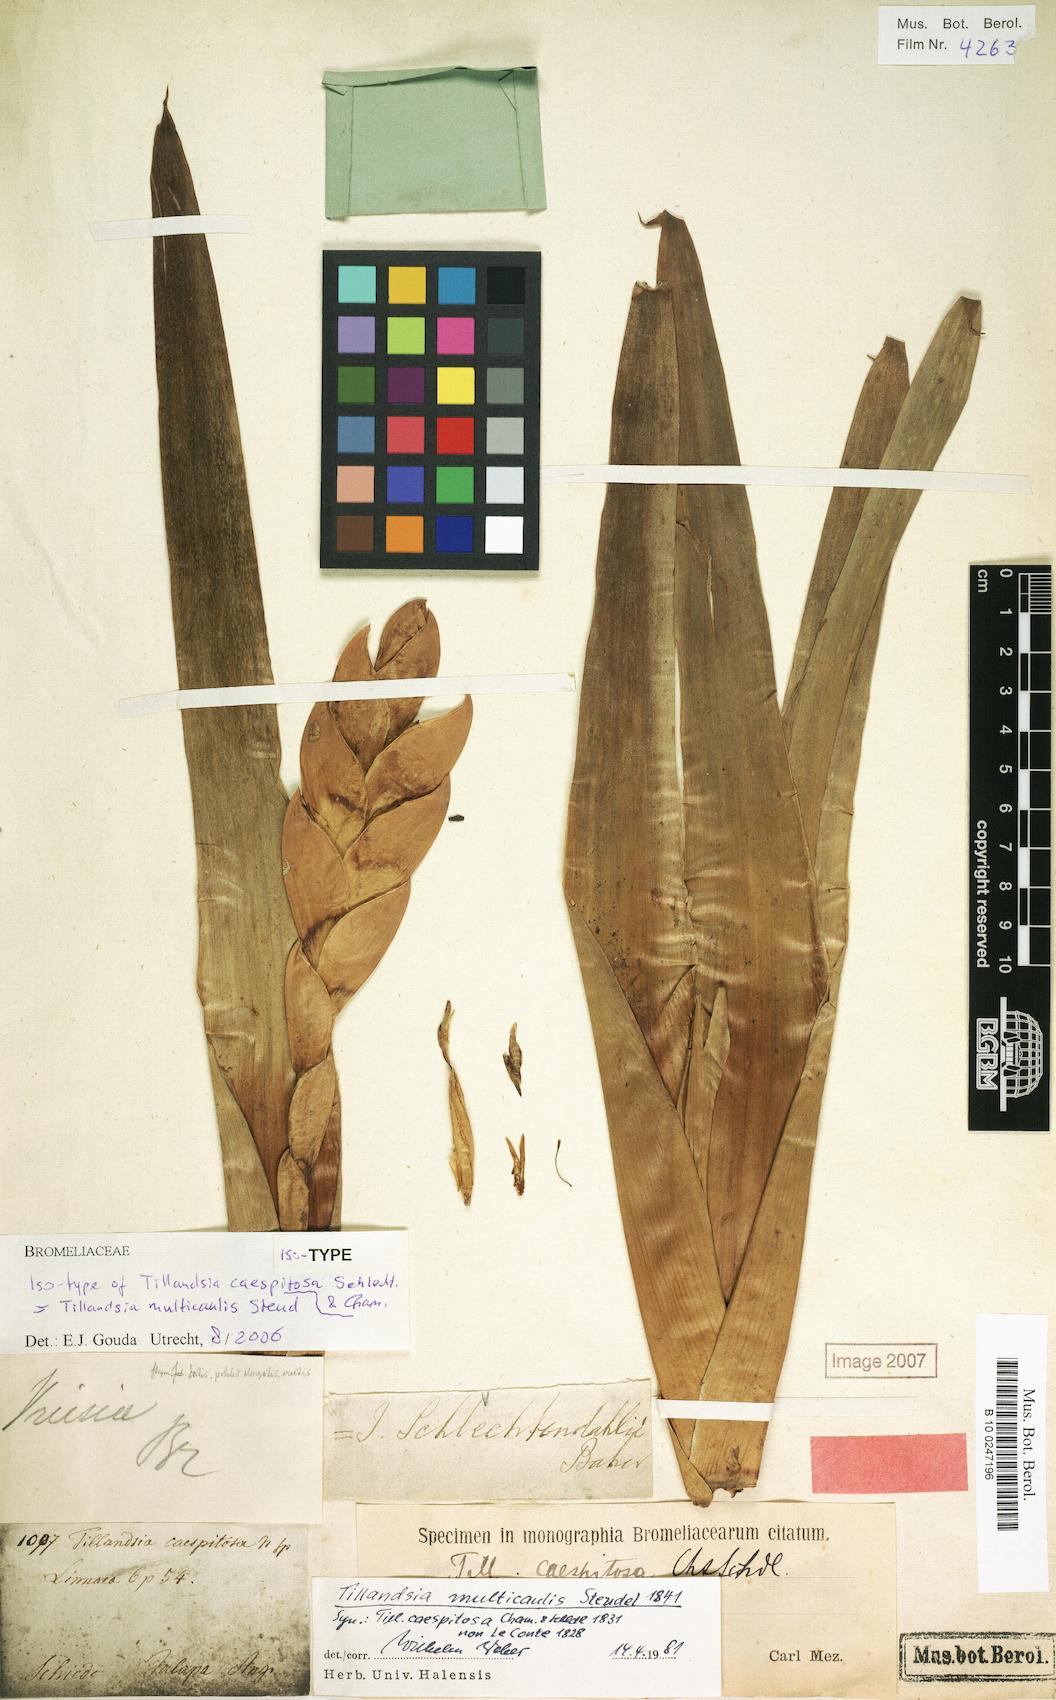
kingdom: Plantae
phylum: Tracheophyta
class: Liliopsida
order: Poales
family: Bromeliaceae
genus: Tillandsia
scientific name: Tillandsia multicaulis
